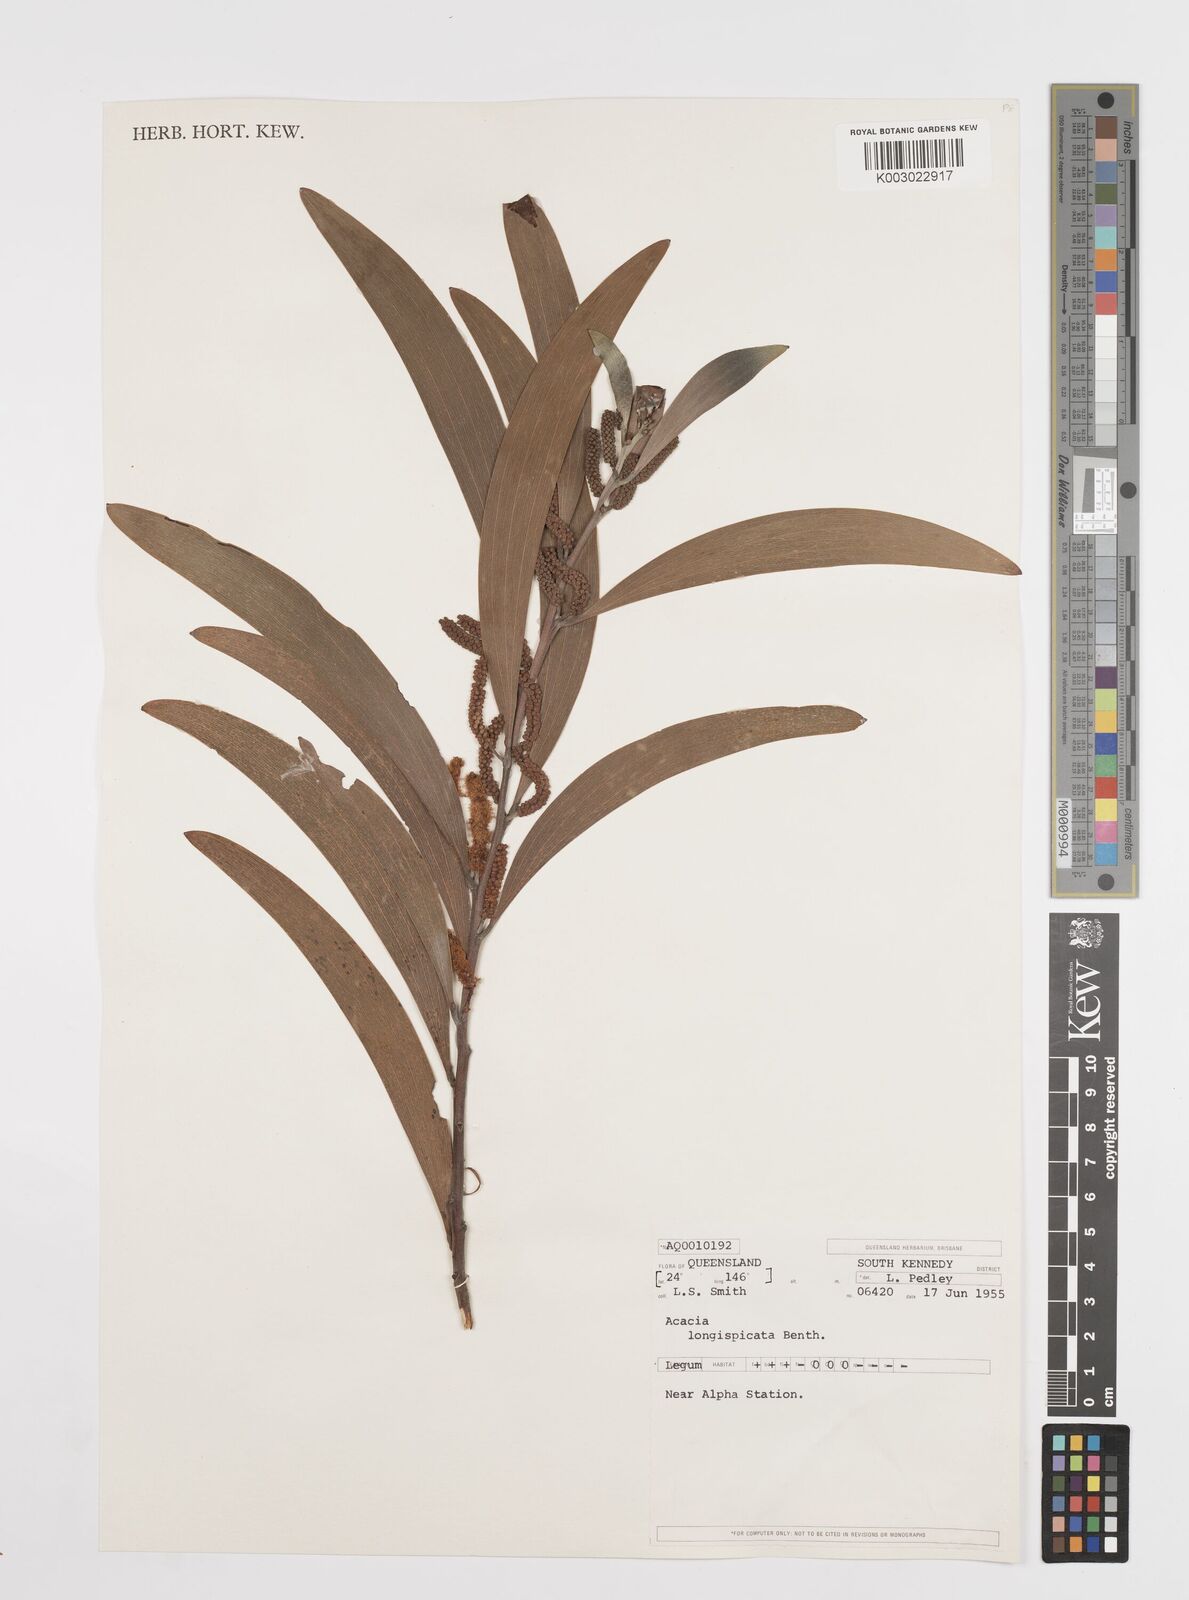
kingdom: Plantae
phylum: Tracheophyta
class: Magnoliopsida
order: Fabales
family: Fabaceae
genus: Acacia
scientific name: Acacia longispicata
